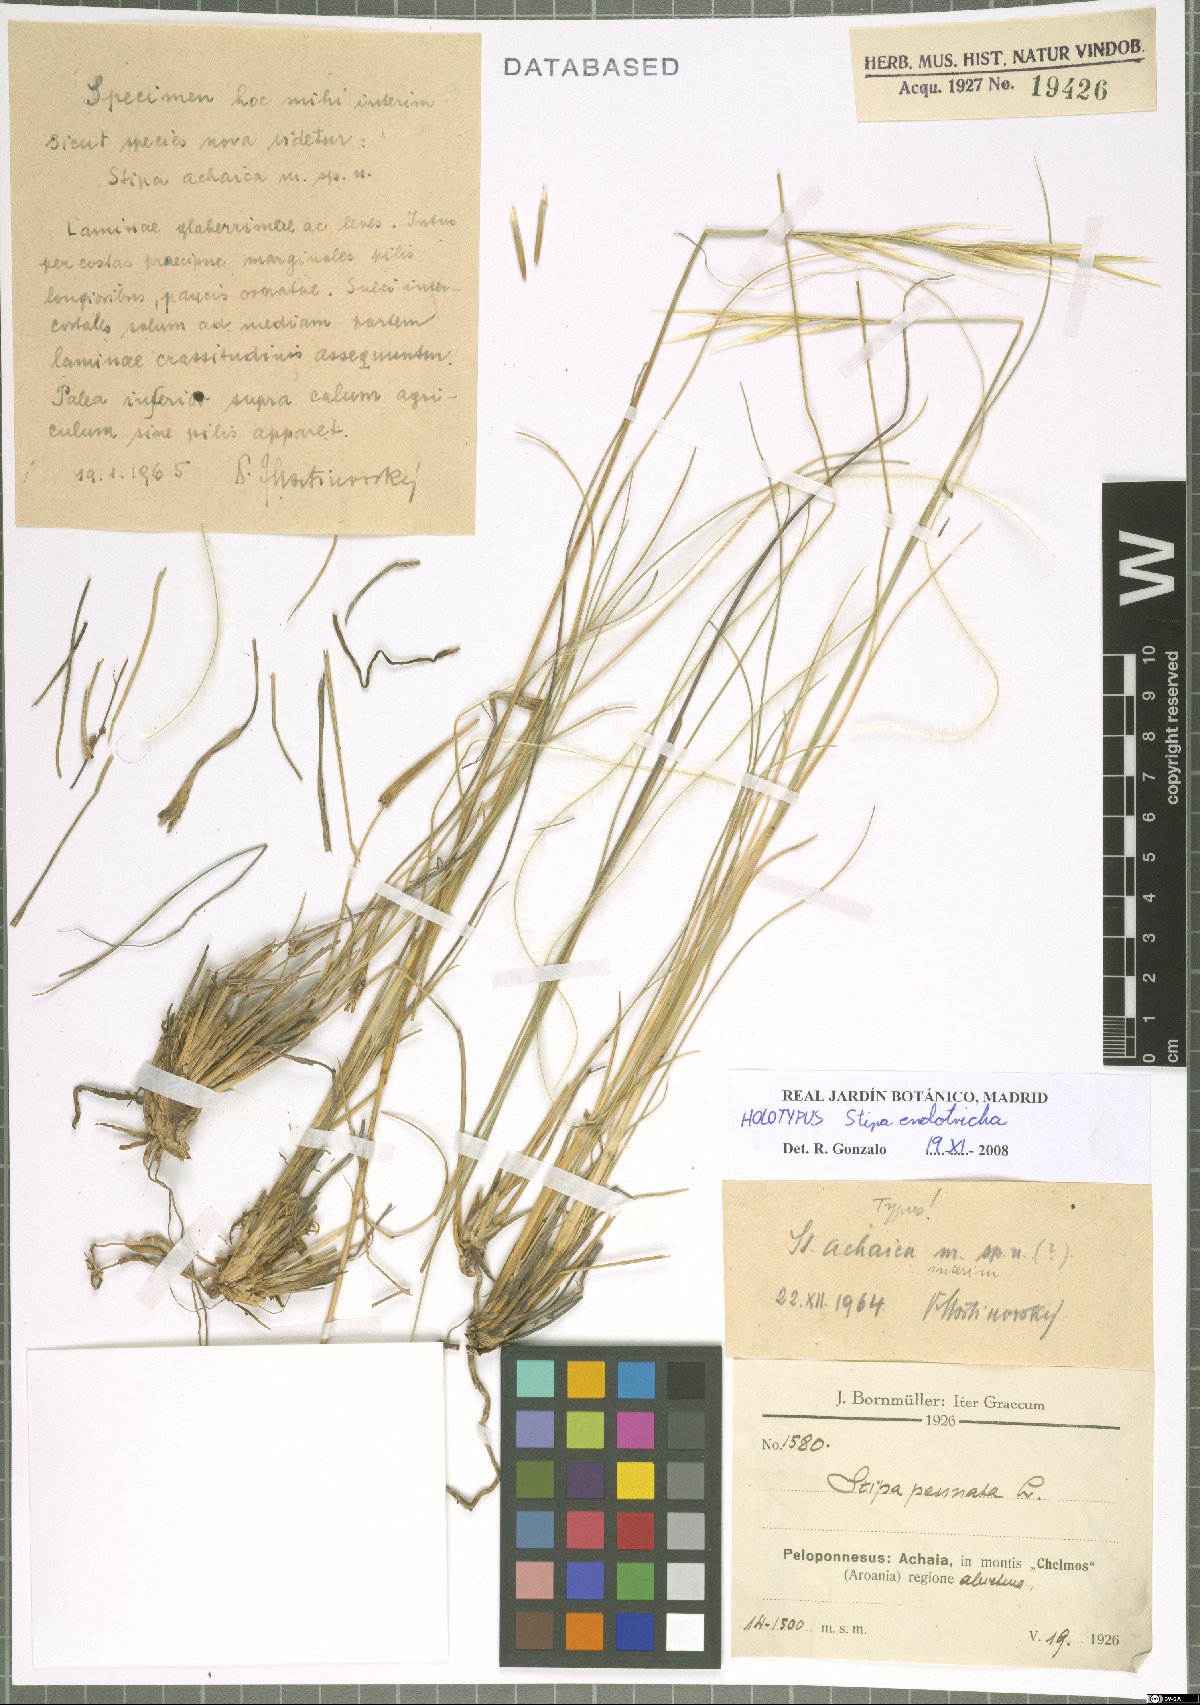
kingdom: Plantae
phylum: Tracheophyta
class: Liliopsida
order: Poales
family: Poaceae
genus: Stipa
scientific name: Stipa endotricha
